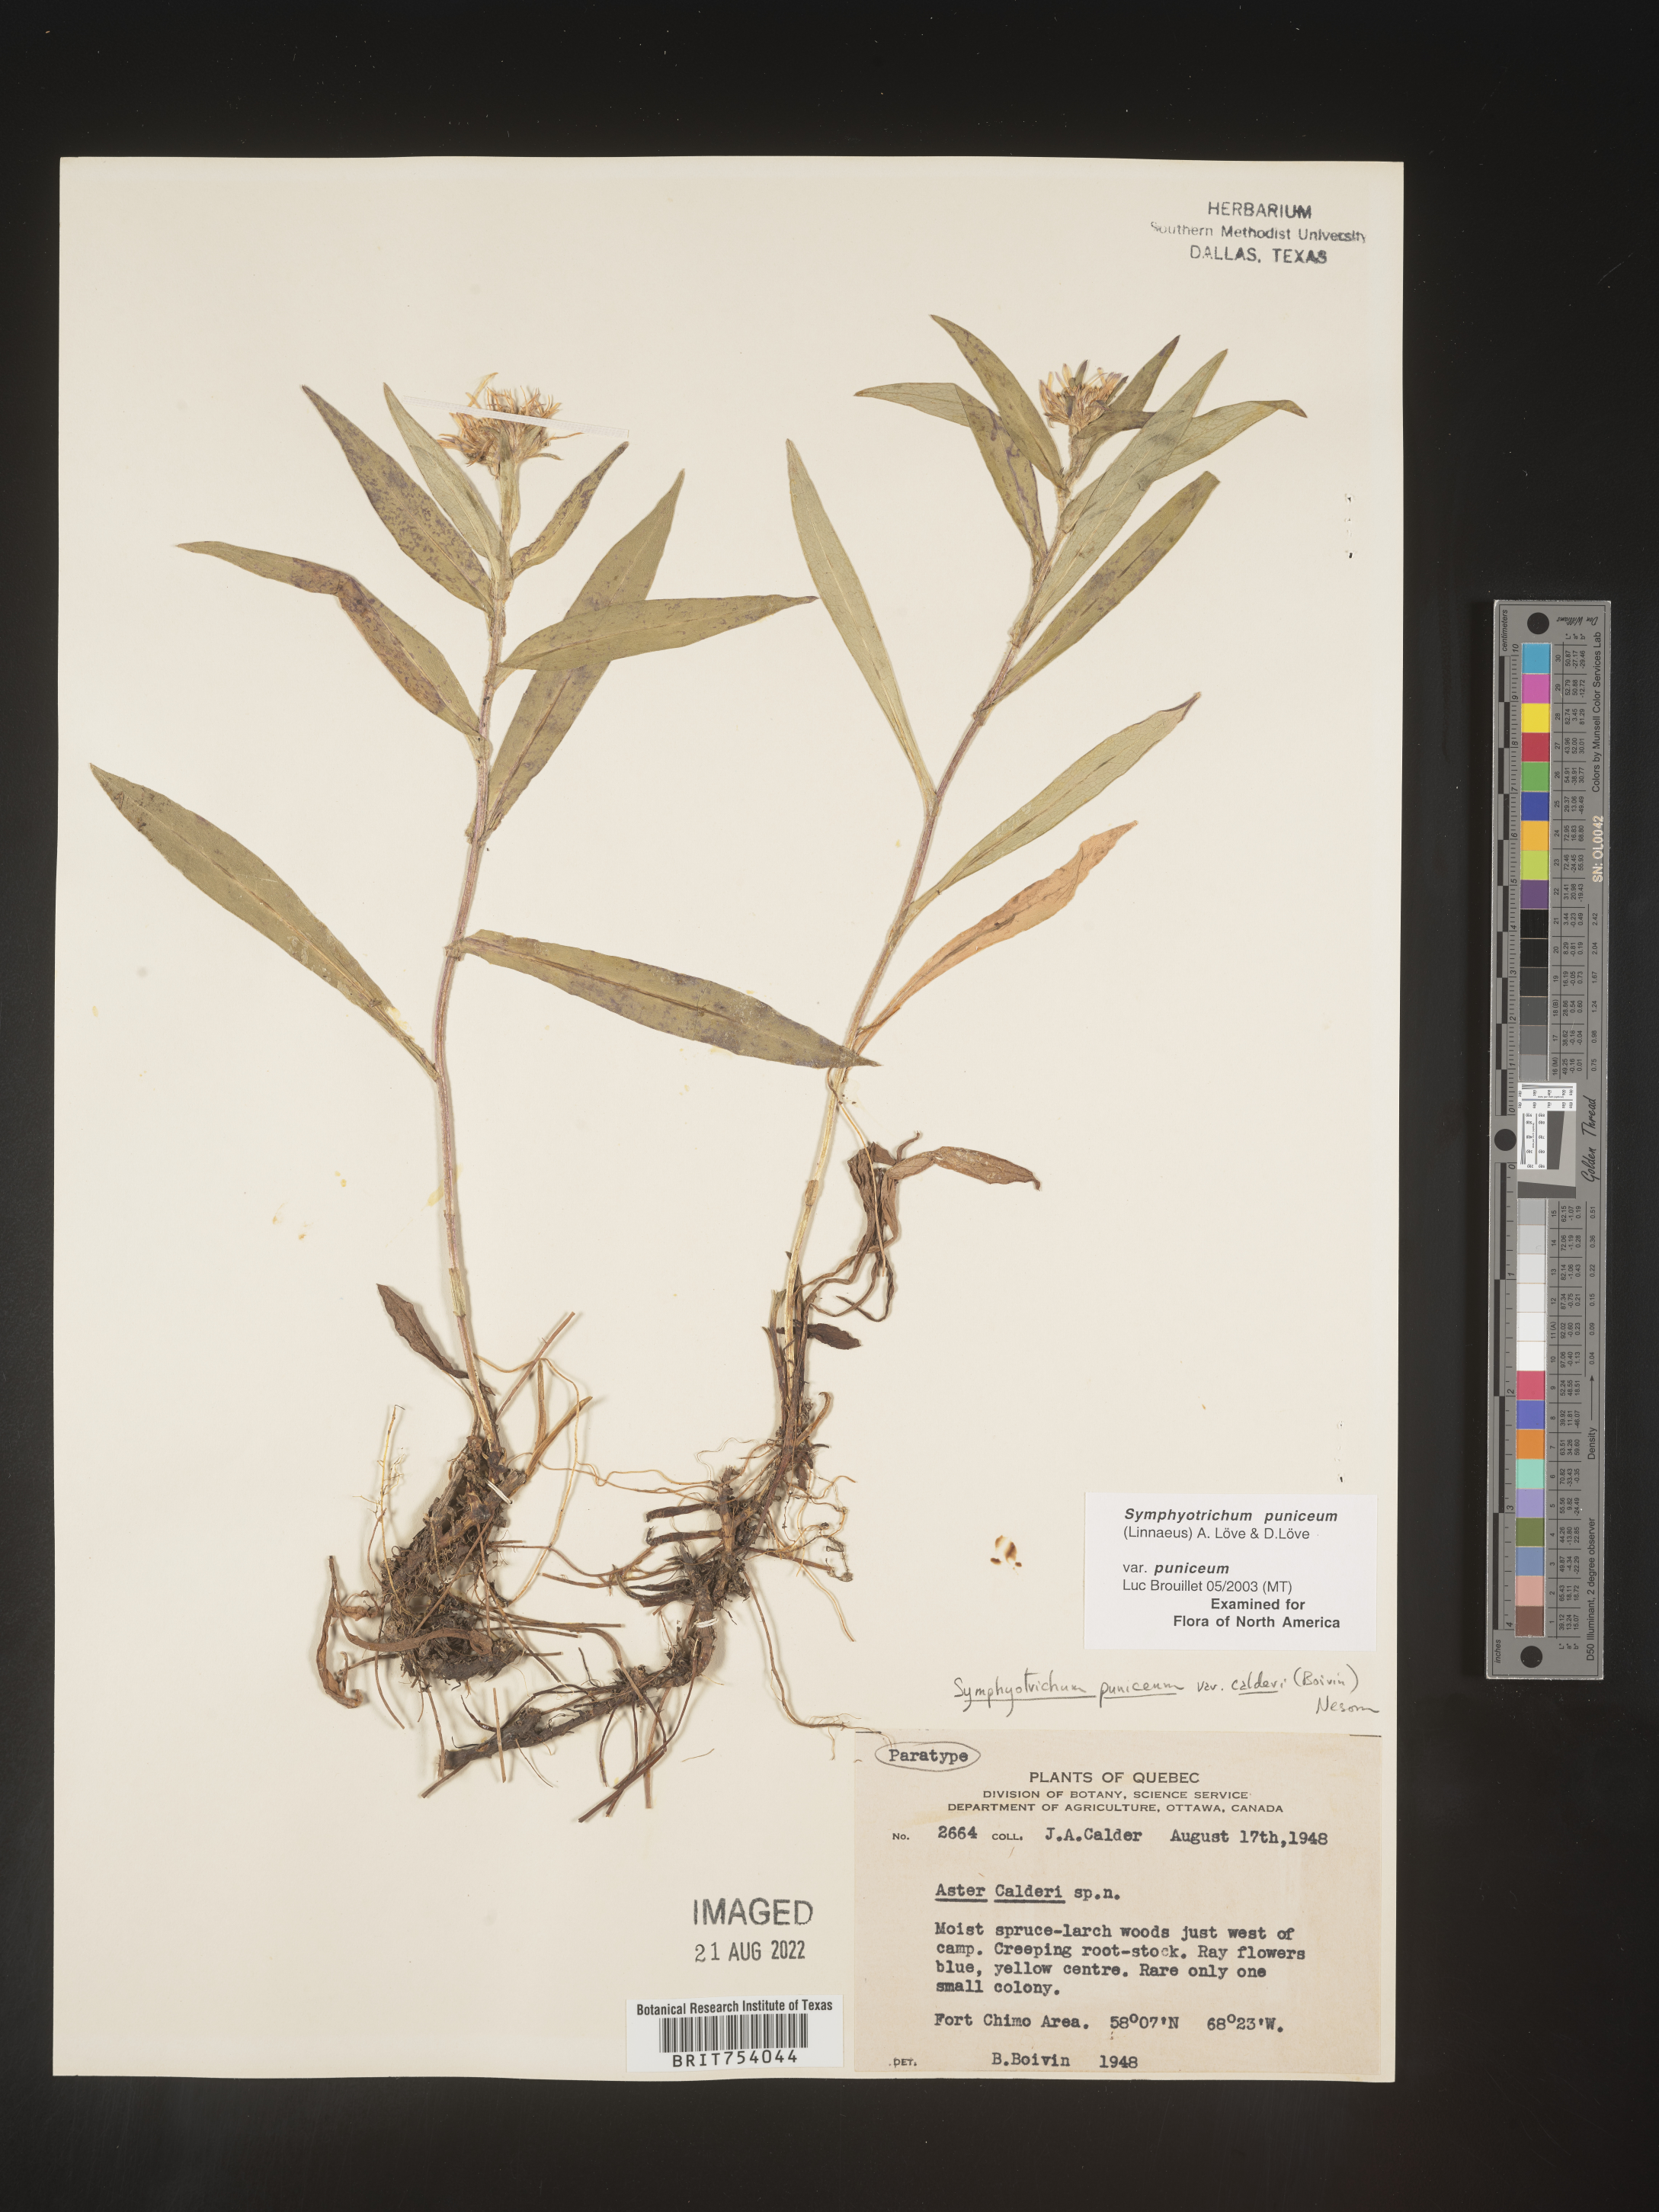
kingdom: Plantae
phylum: Tracheophyta
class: Magnoliopsida
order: Asterales
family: Asteraceae
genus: Symphyotrichum
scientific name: Symphyotrichum puniceum
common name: Bog aster
